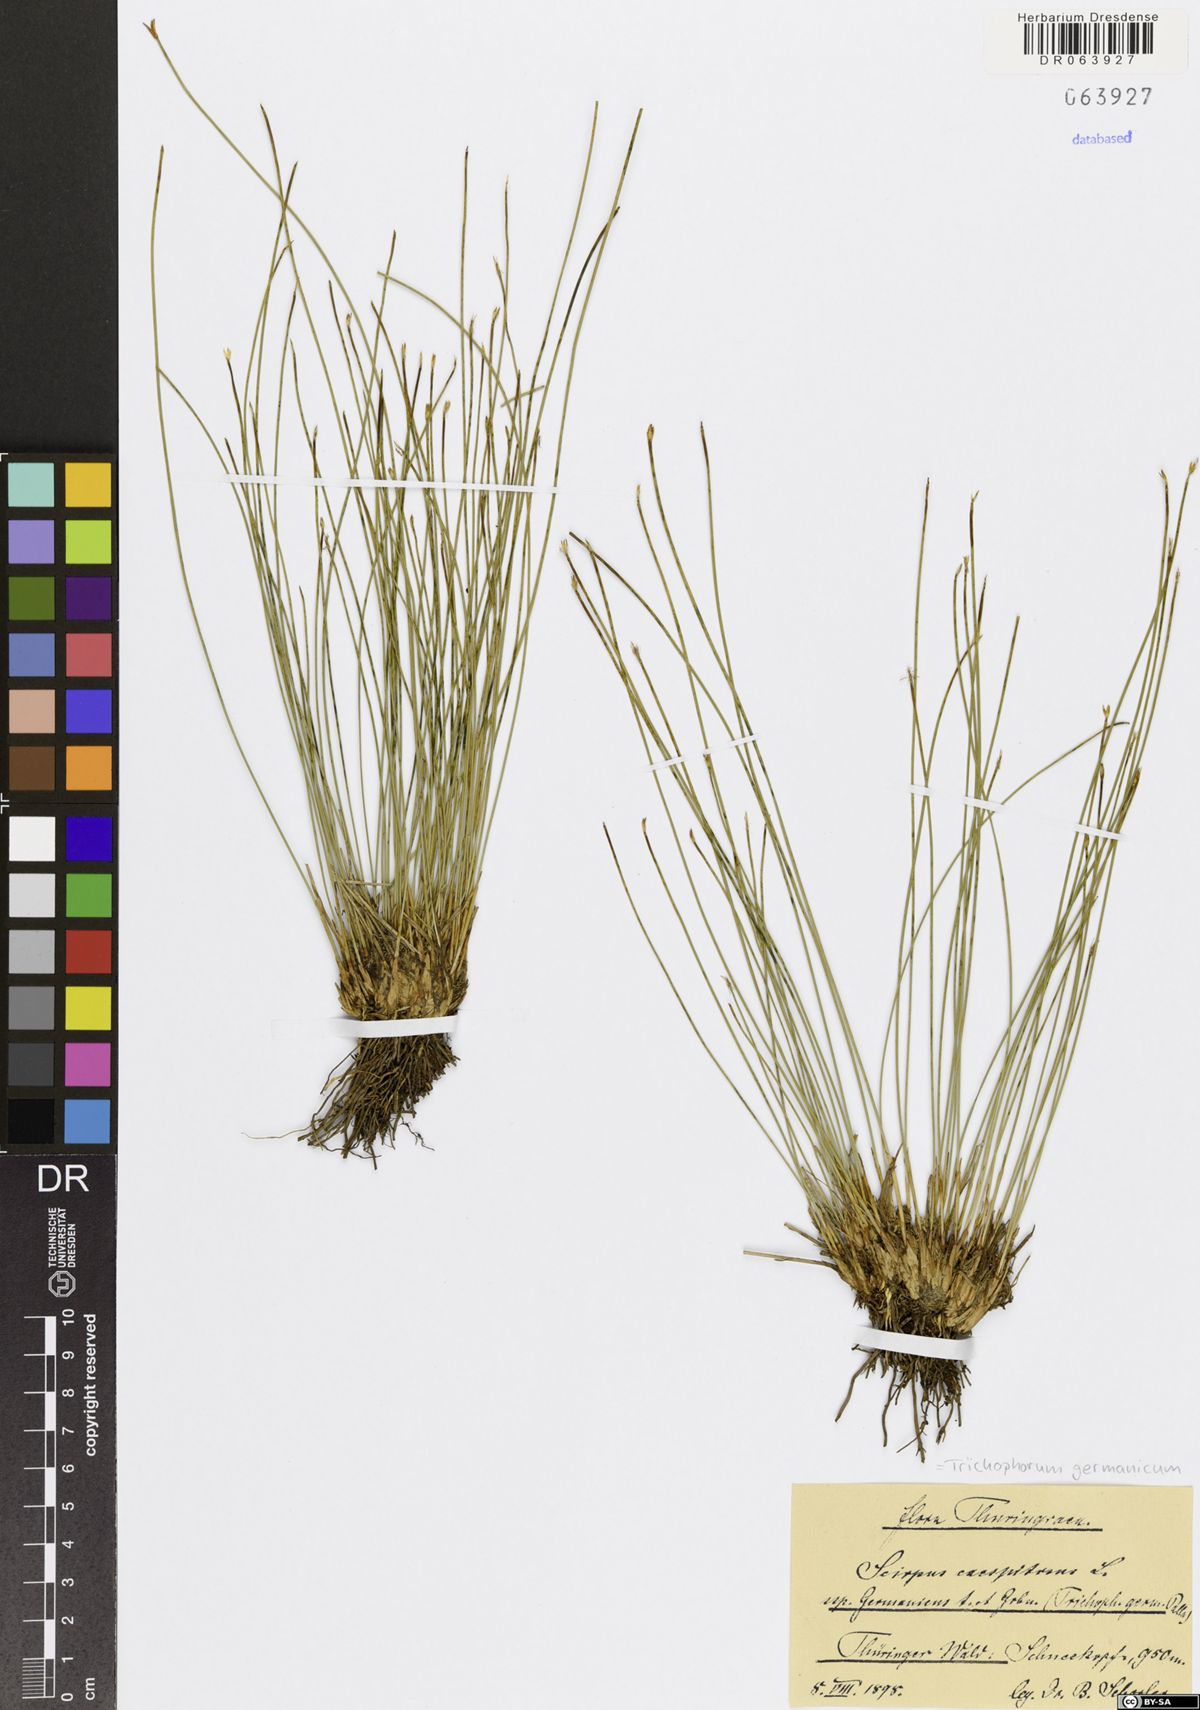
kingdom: Plantae
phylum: Tracheophyta
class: Liliopsida
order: Poales
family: Cyperaceae
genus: Trichophorum
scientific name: Trichophorum cespitosum
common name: Cespitose bulrush
